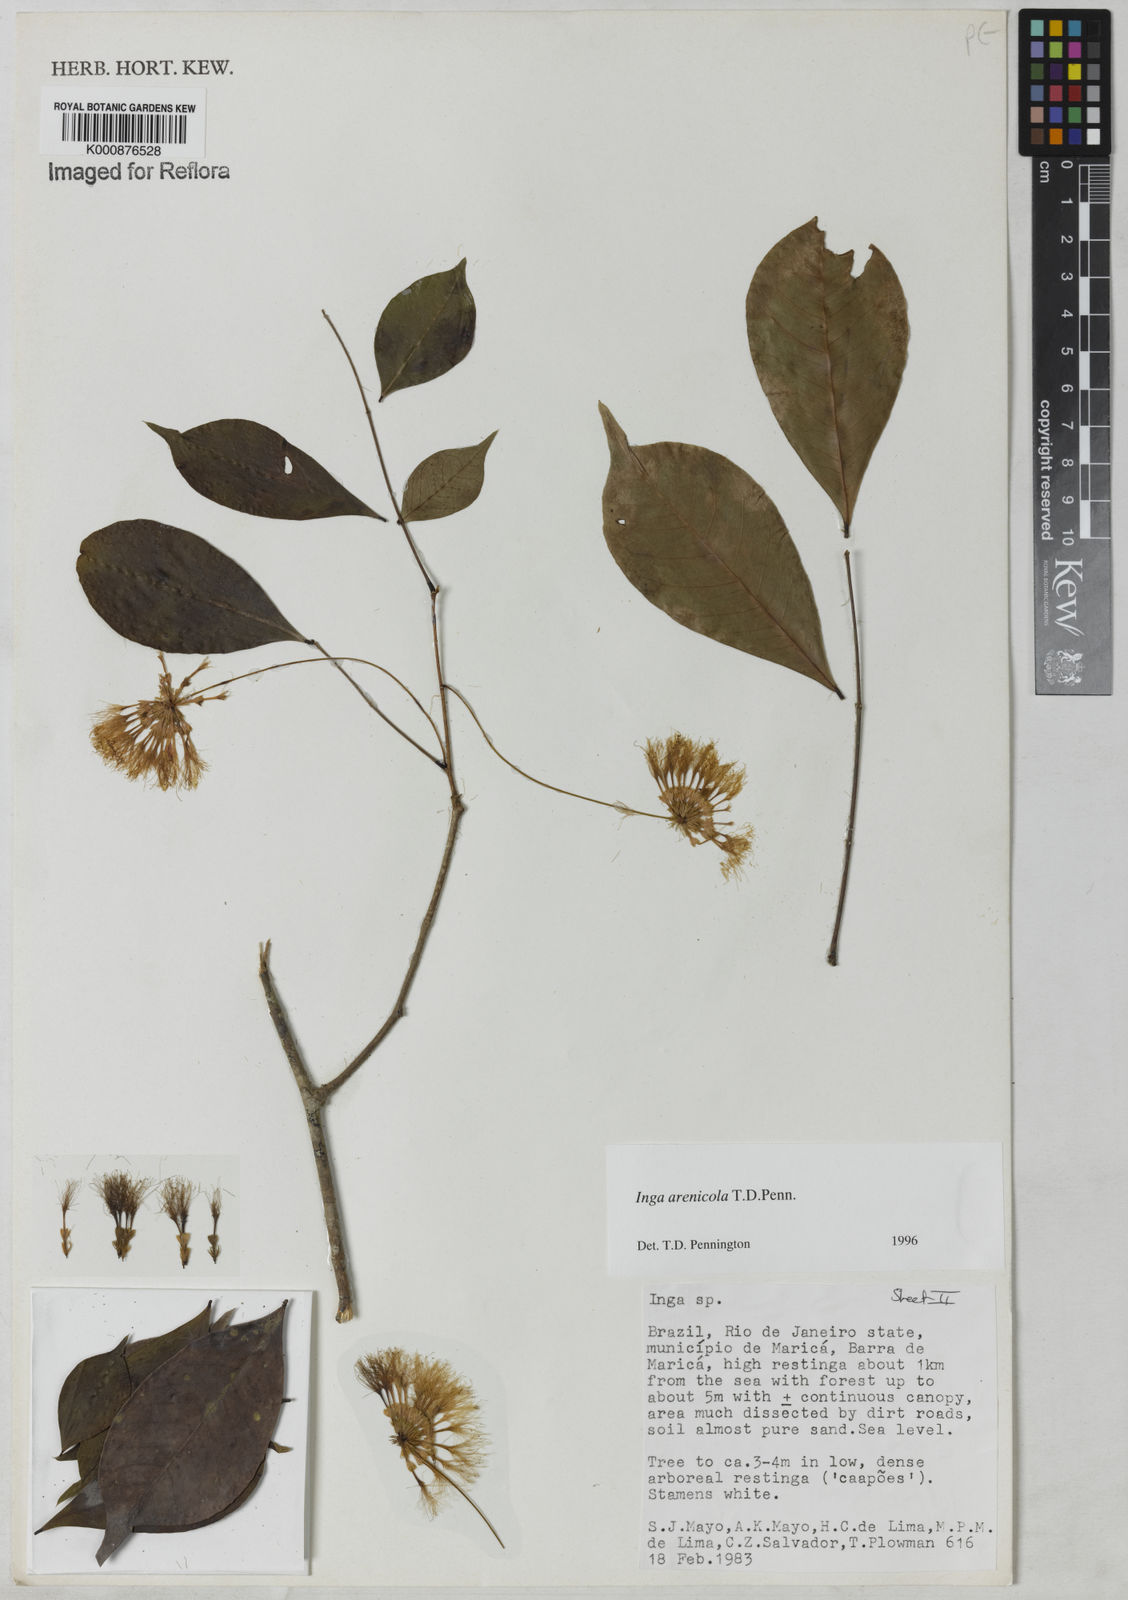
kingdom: Plantae
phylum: Tracheophyta
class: Magnoliopsida
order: Fabales
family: Fabaceae
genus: Inga
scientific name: Inga arenicola
